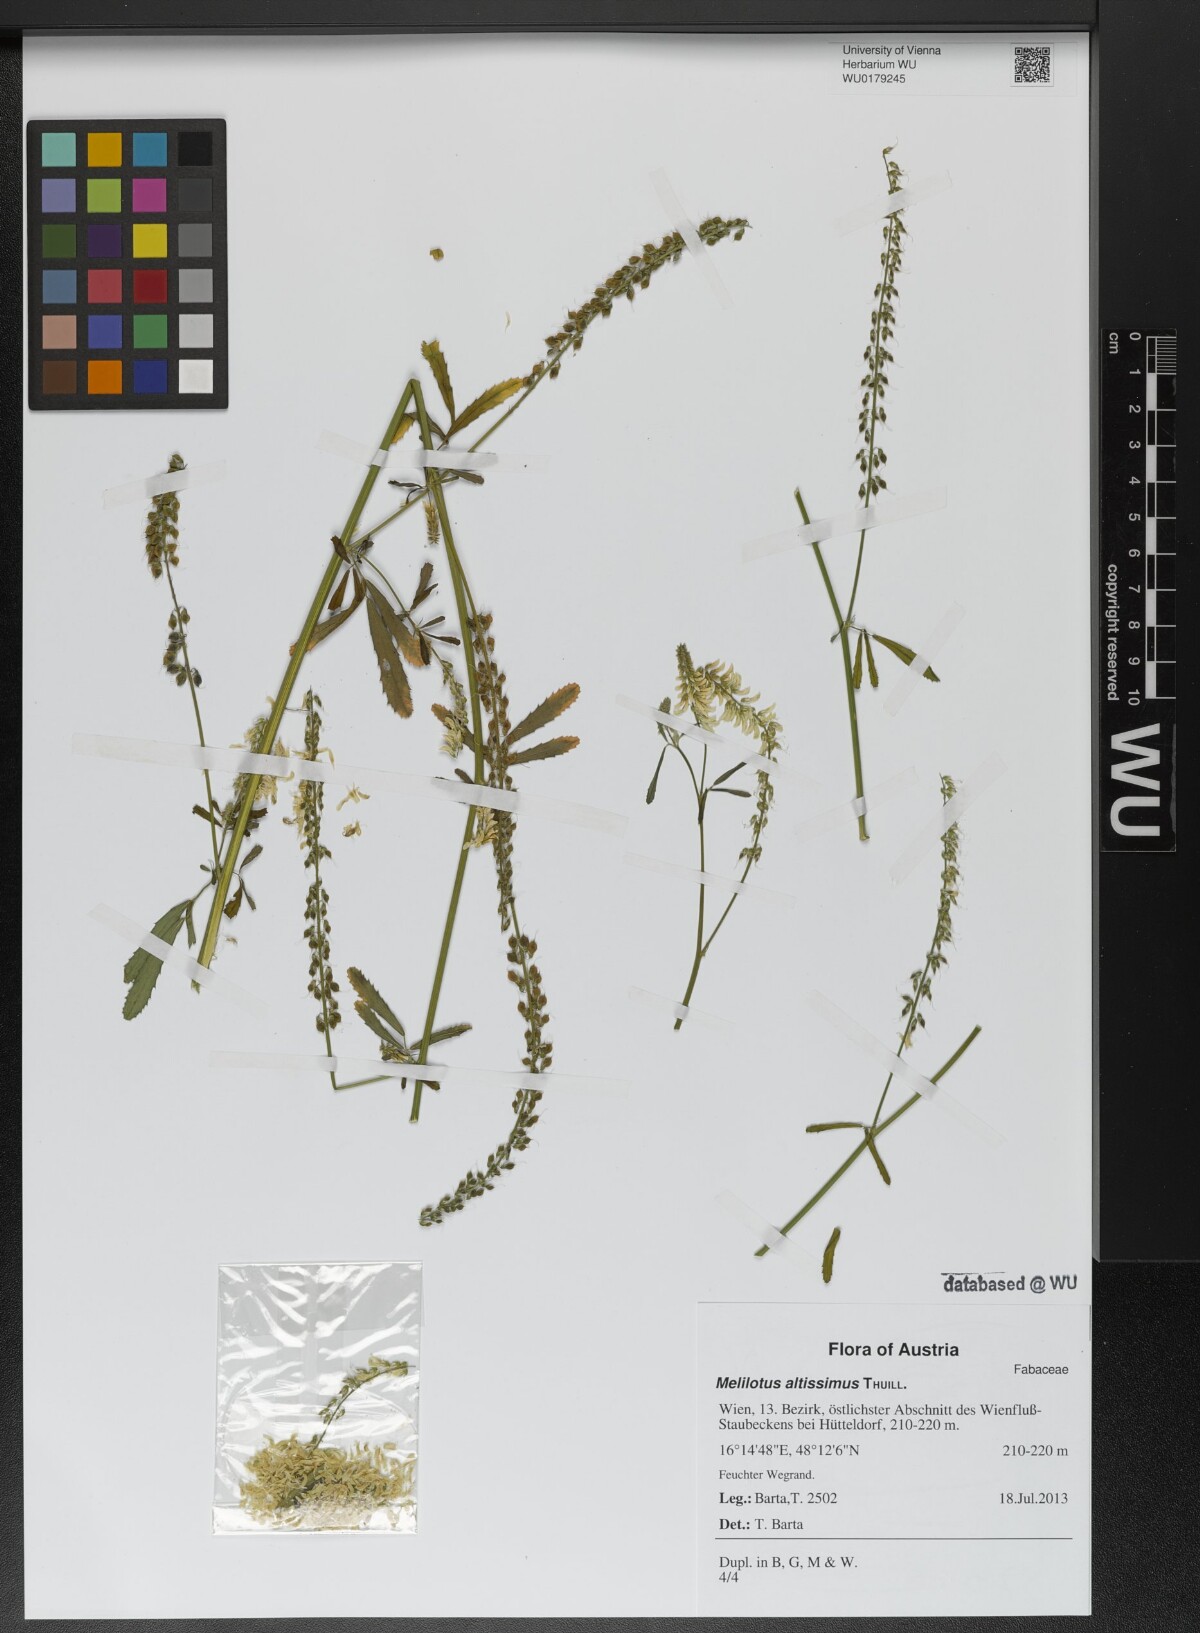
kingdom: Plantae
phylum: Tracheophyta
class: Magnoliopsida
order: Fabales
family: Fabaceae
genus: Melilotus
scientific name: Melilotus altissimus
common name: Tall melilot
